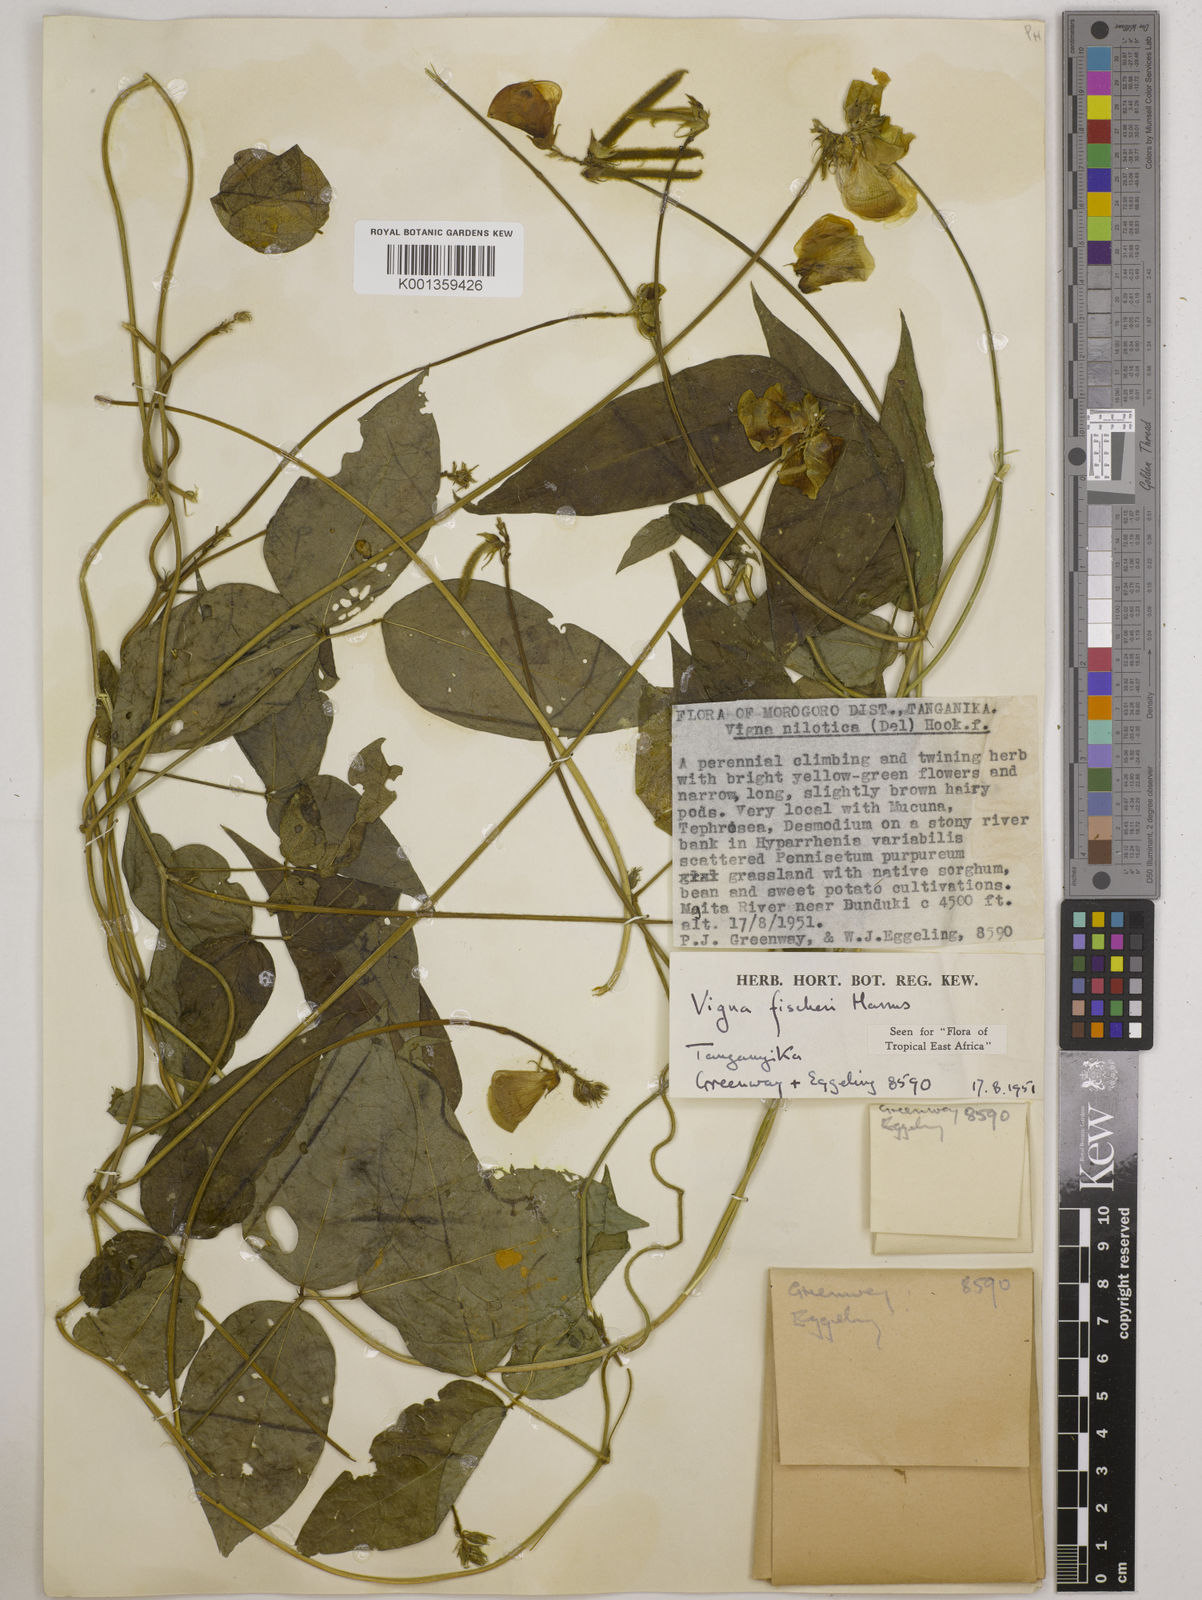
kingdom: Plantae
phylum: Tracheophyta
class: Magnoliopsida
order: Fabales
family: Fabaceae
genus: Vigna
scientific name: Vigna fischeri
